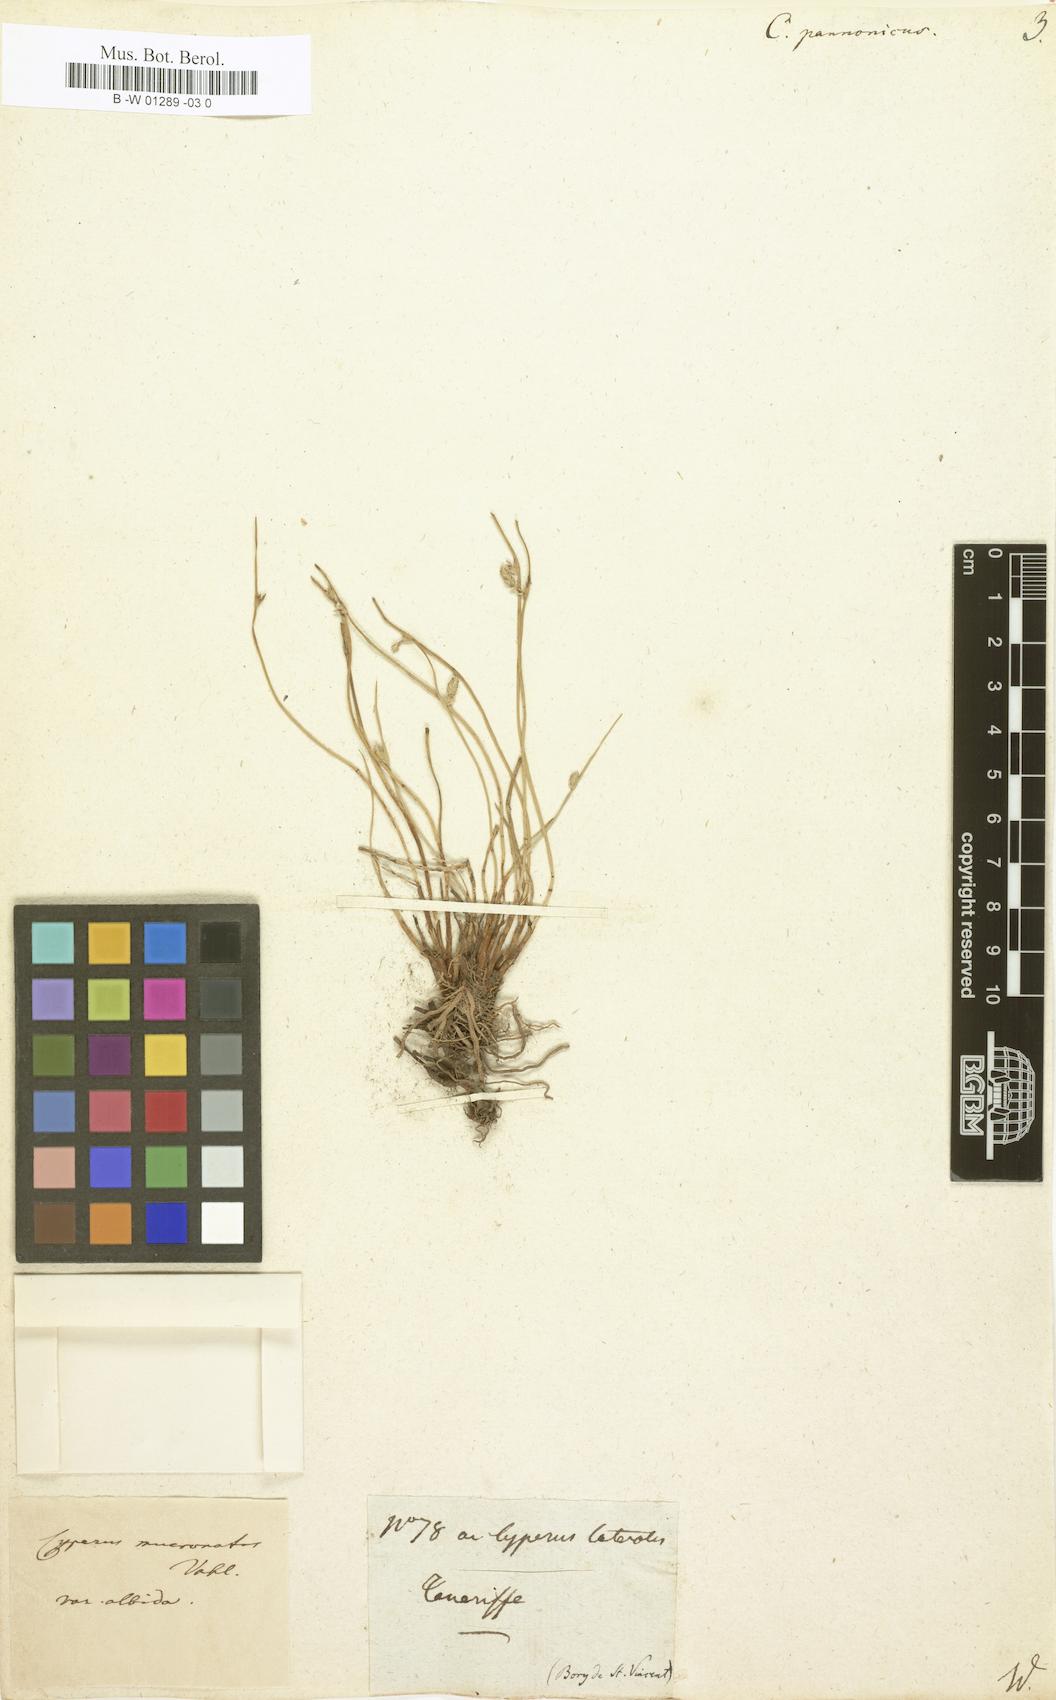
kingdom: Plantae
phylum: Tracheophyta
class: Liliopsida
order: Poales
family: Cyperaceae
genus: Cyperus
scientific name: Cyperus pannonicus
